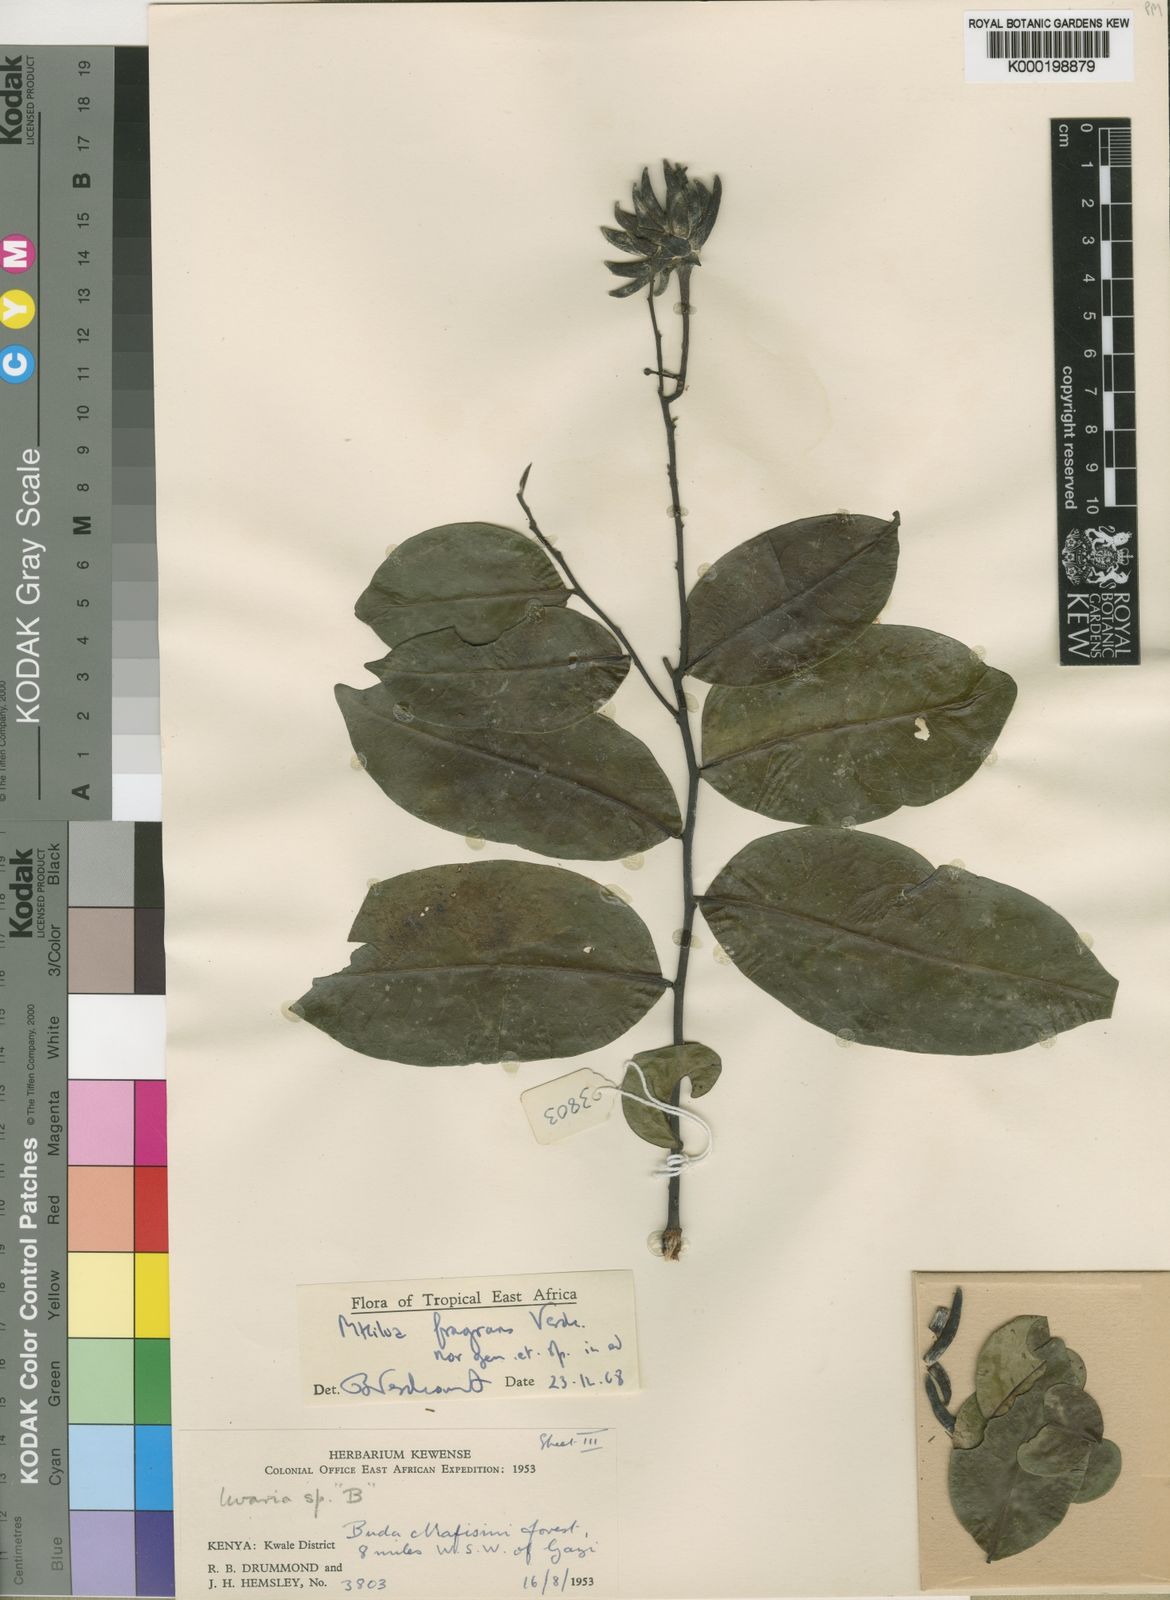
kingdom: Plantae
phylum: Tracheophyta
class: Magnoliopsida
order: Magnoliales
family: Annonaceae
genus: Mkilua
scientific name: Mkilua fragrans
